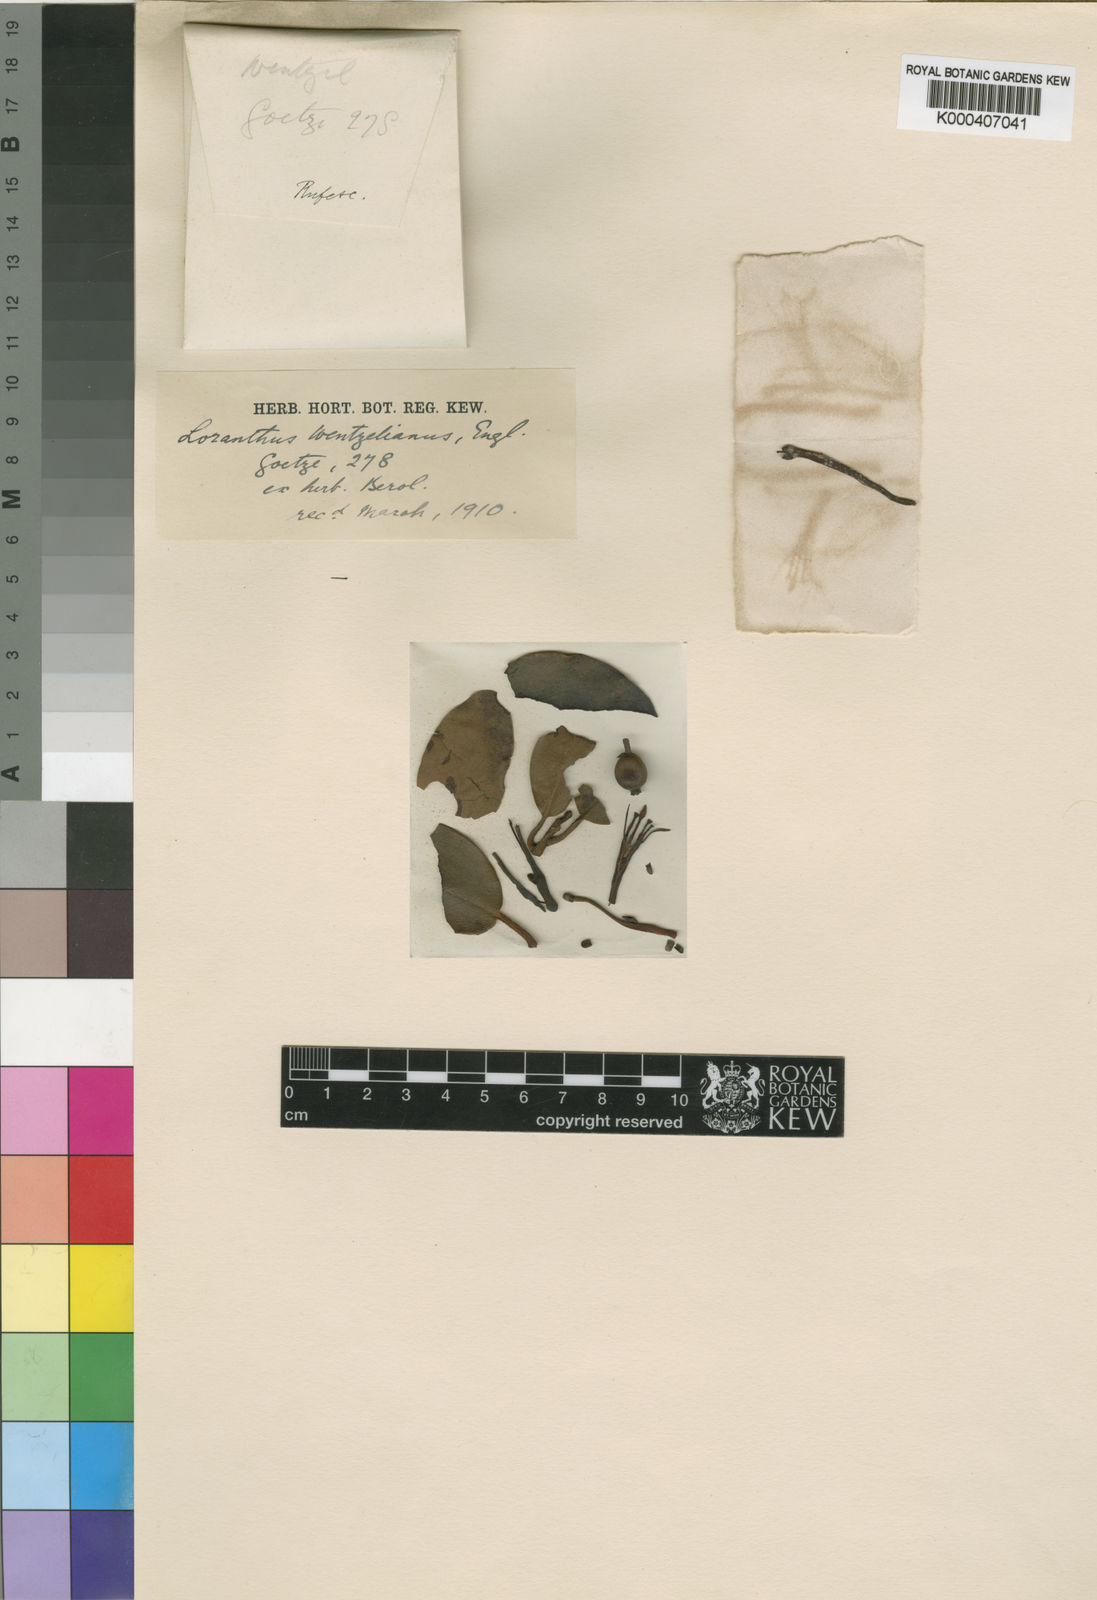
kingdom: Plantae
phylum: Tracheophyta
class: Magnoliopsida
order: Santalales
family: Loranthaceae
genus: Phragmanthera
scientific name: Phragmanthera usuiensis
